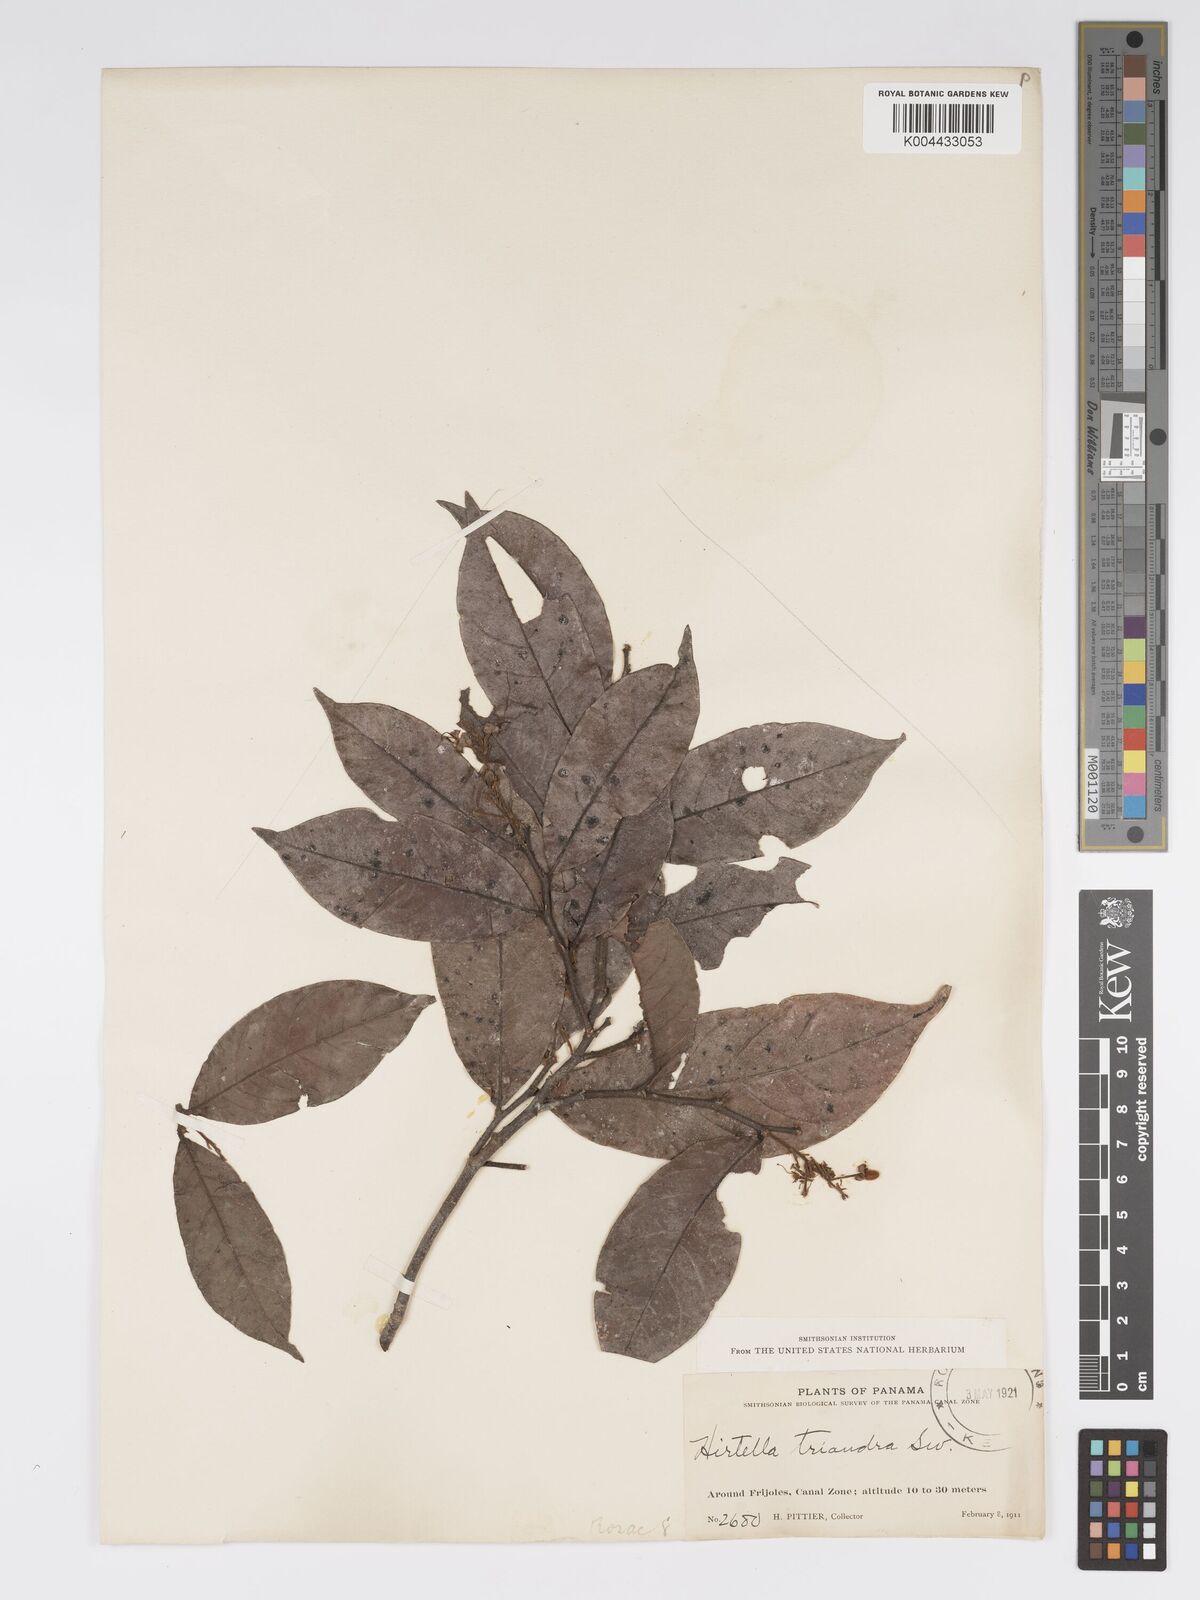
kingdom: Plantae
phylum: Tracheophyta
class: Magnoliopsida
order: Malpighiales
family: Chrysobalanaceae
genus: Hirtella
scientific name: Hirtella triandra
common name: Hairy plum
